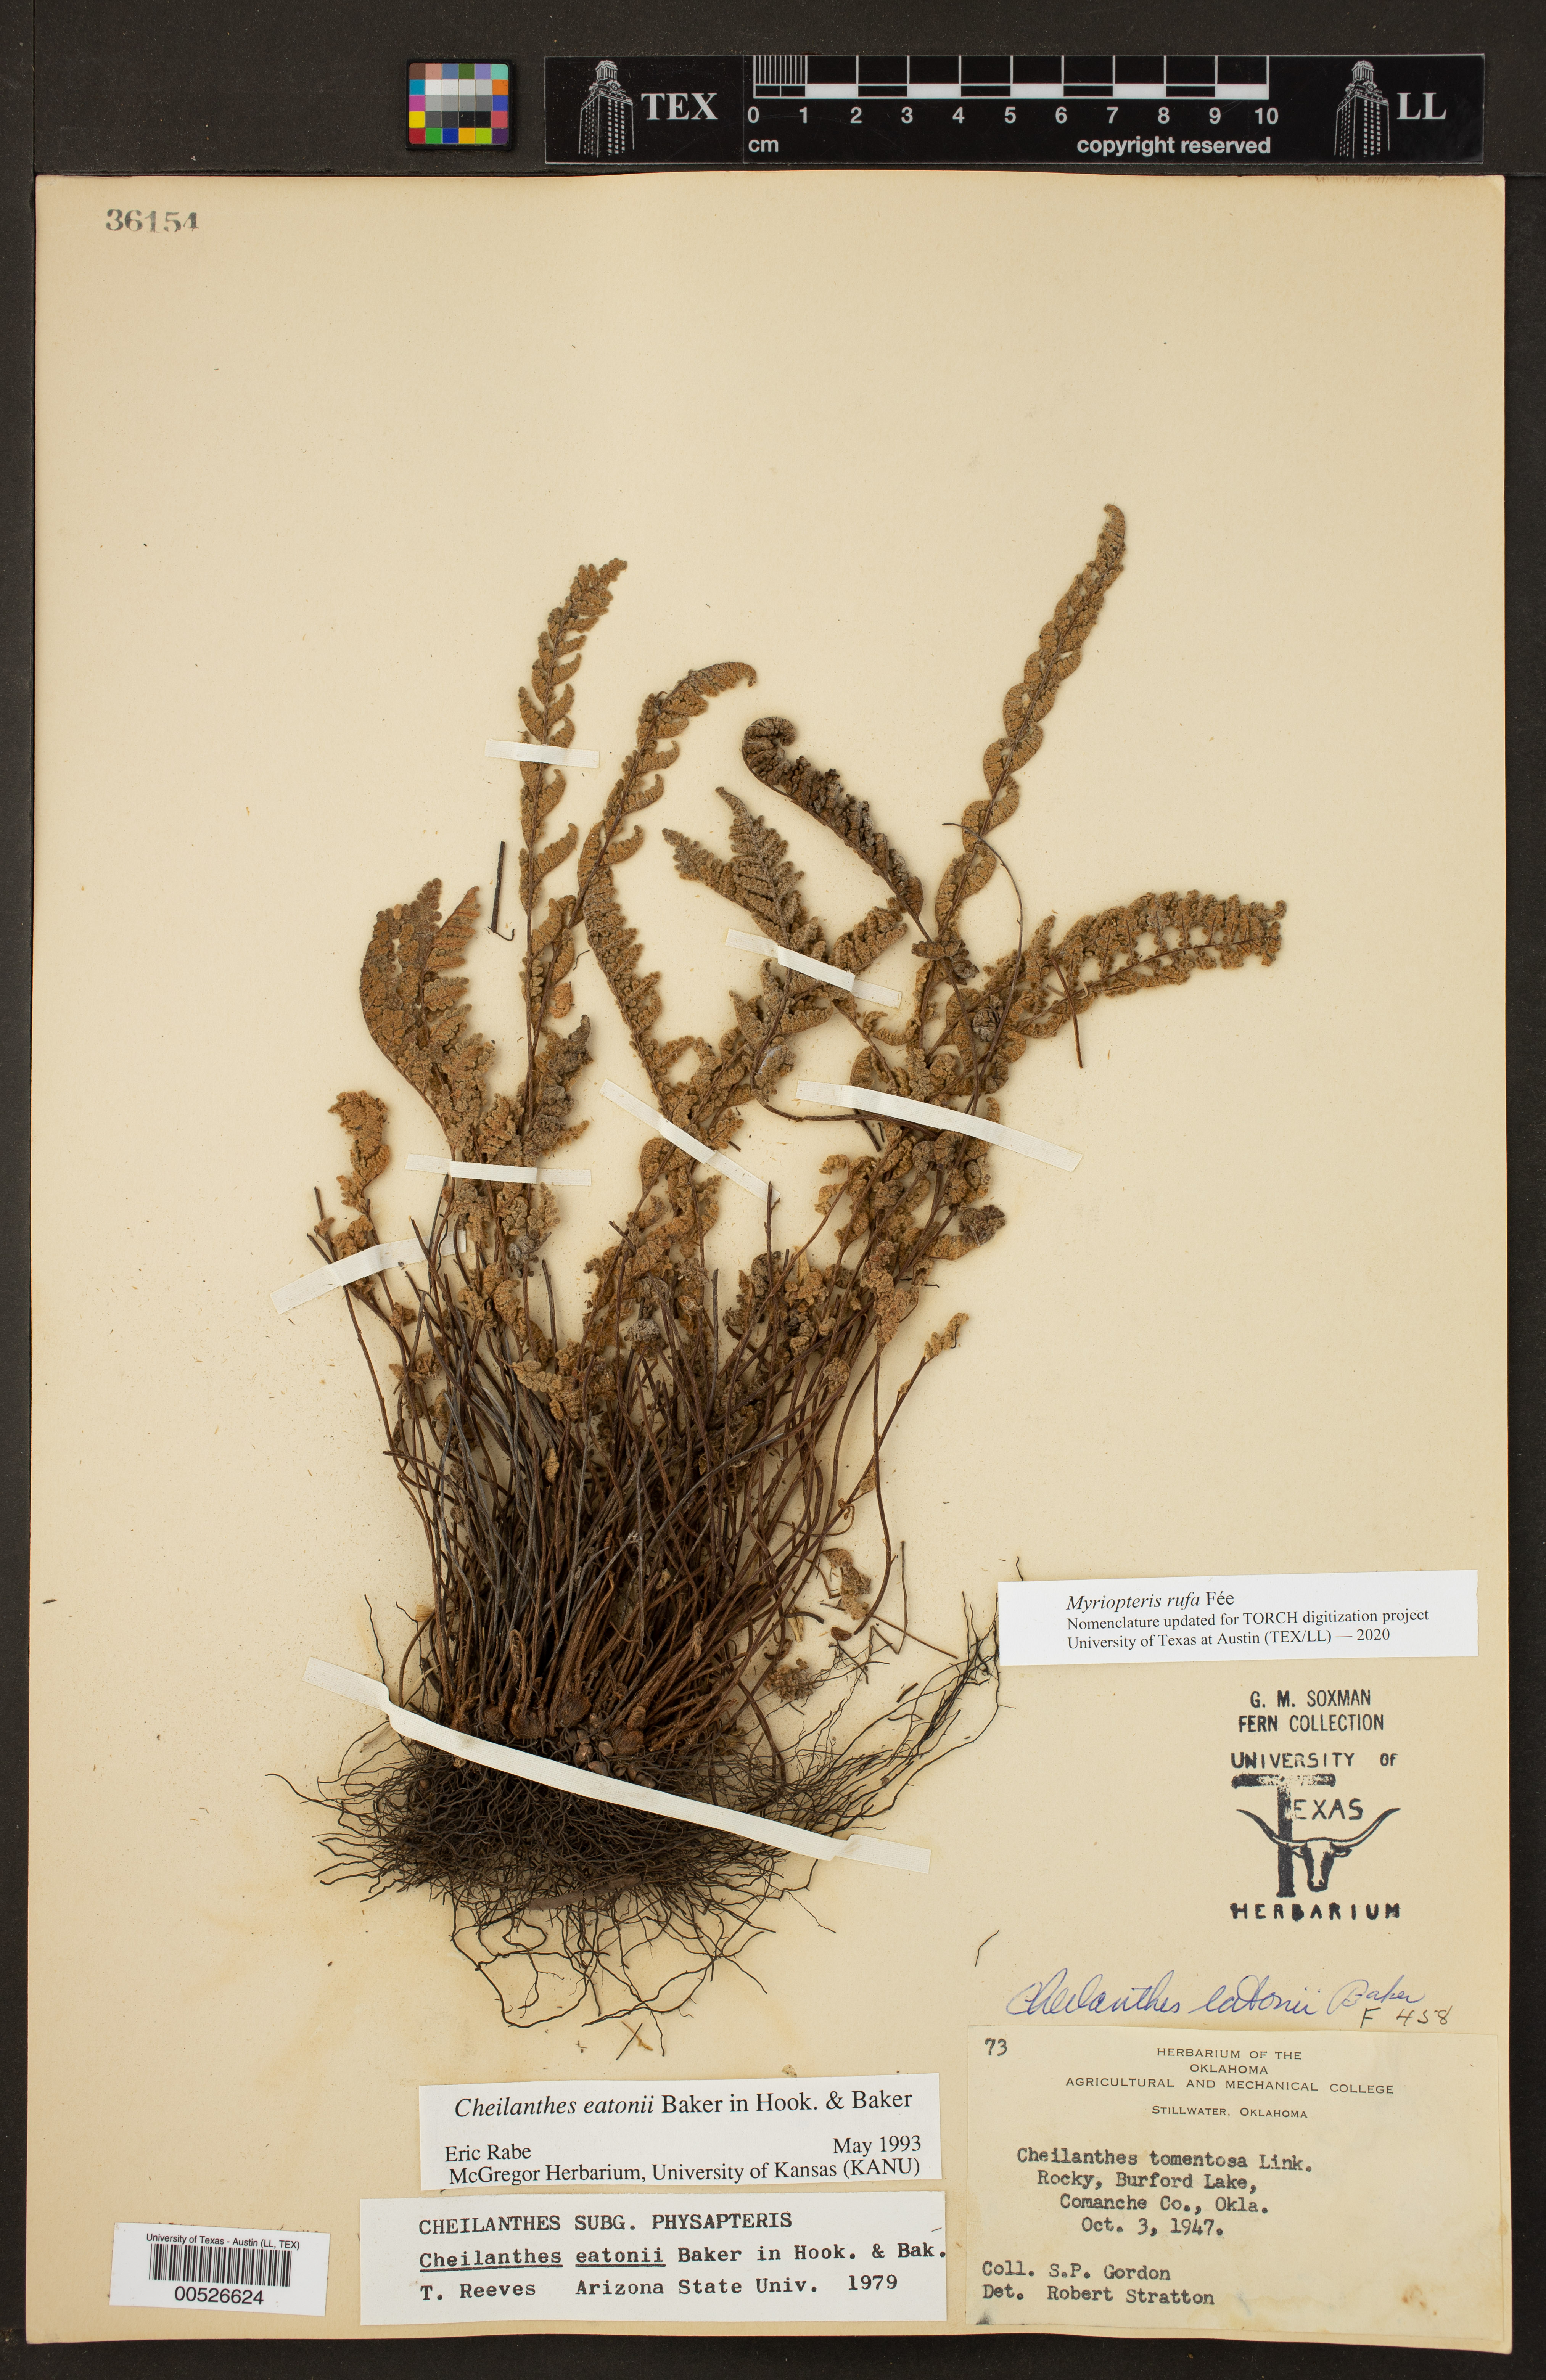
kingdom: Plantae
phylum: Tracheophyta
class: Polypodiopsida
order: Polypodiales
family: Pteridaceae
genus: Myriopteris
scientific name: Myriopteris rufa
